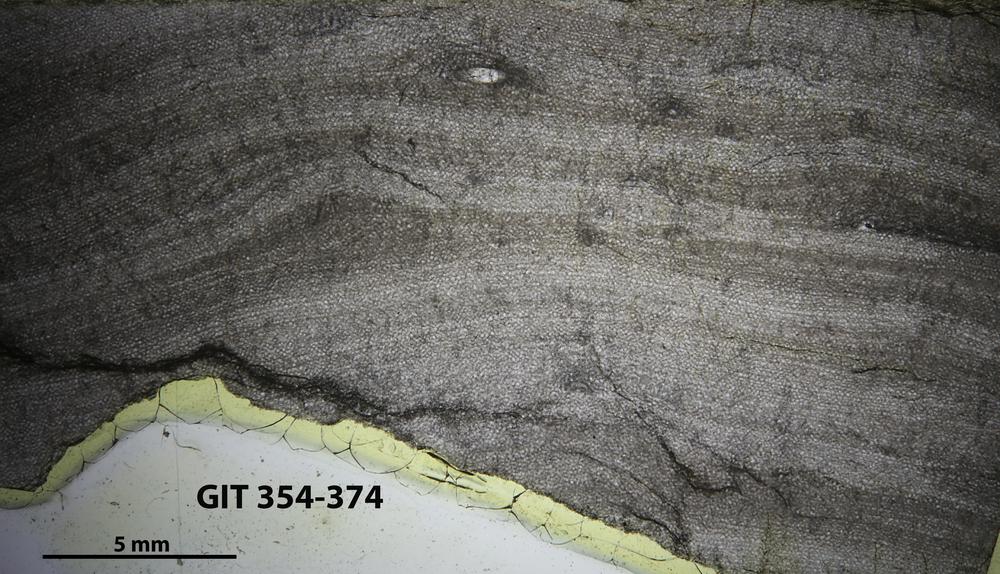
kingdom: Animalia
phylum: Porifera
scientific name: Porifera
